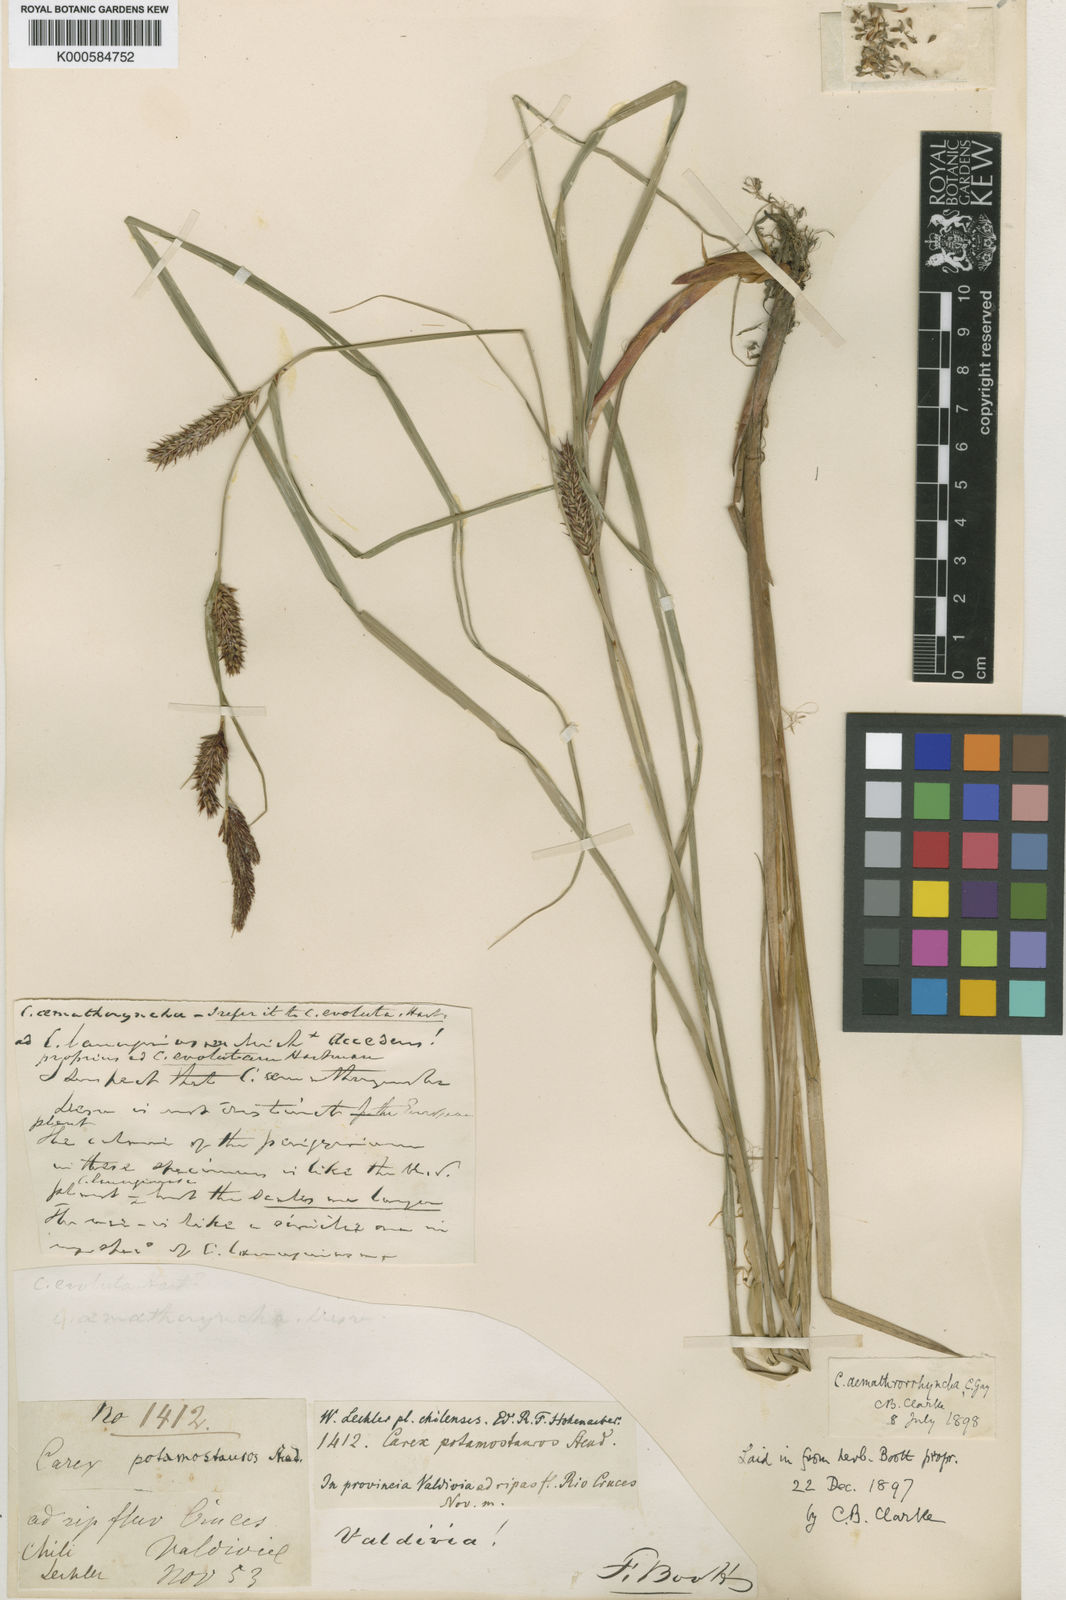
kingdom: Plantae
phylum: Tracheophyta
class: Liliopsida
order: Poales
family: Cyperaceae
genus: Carex
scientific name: Carex
